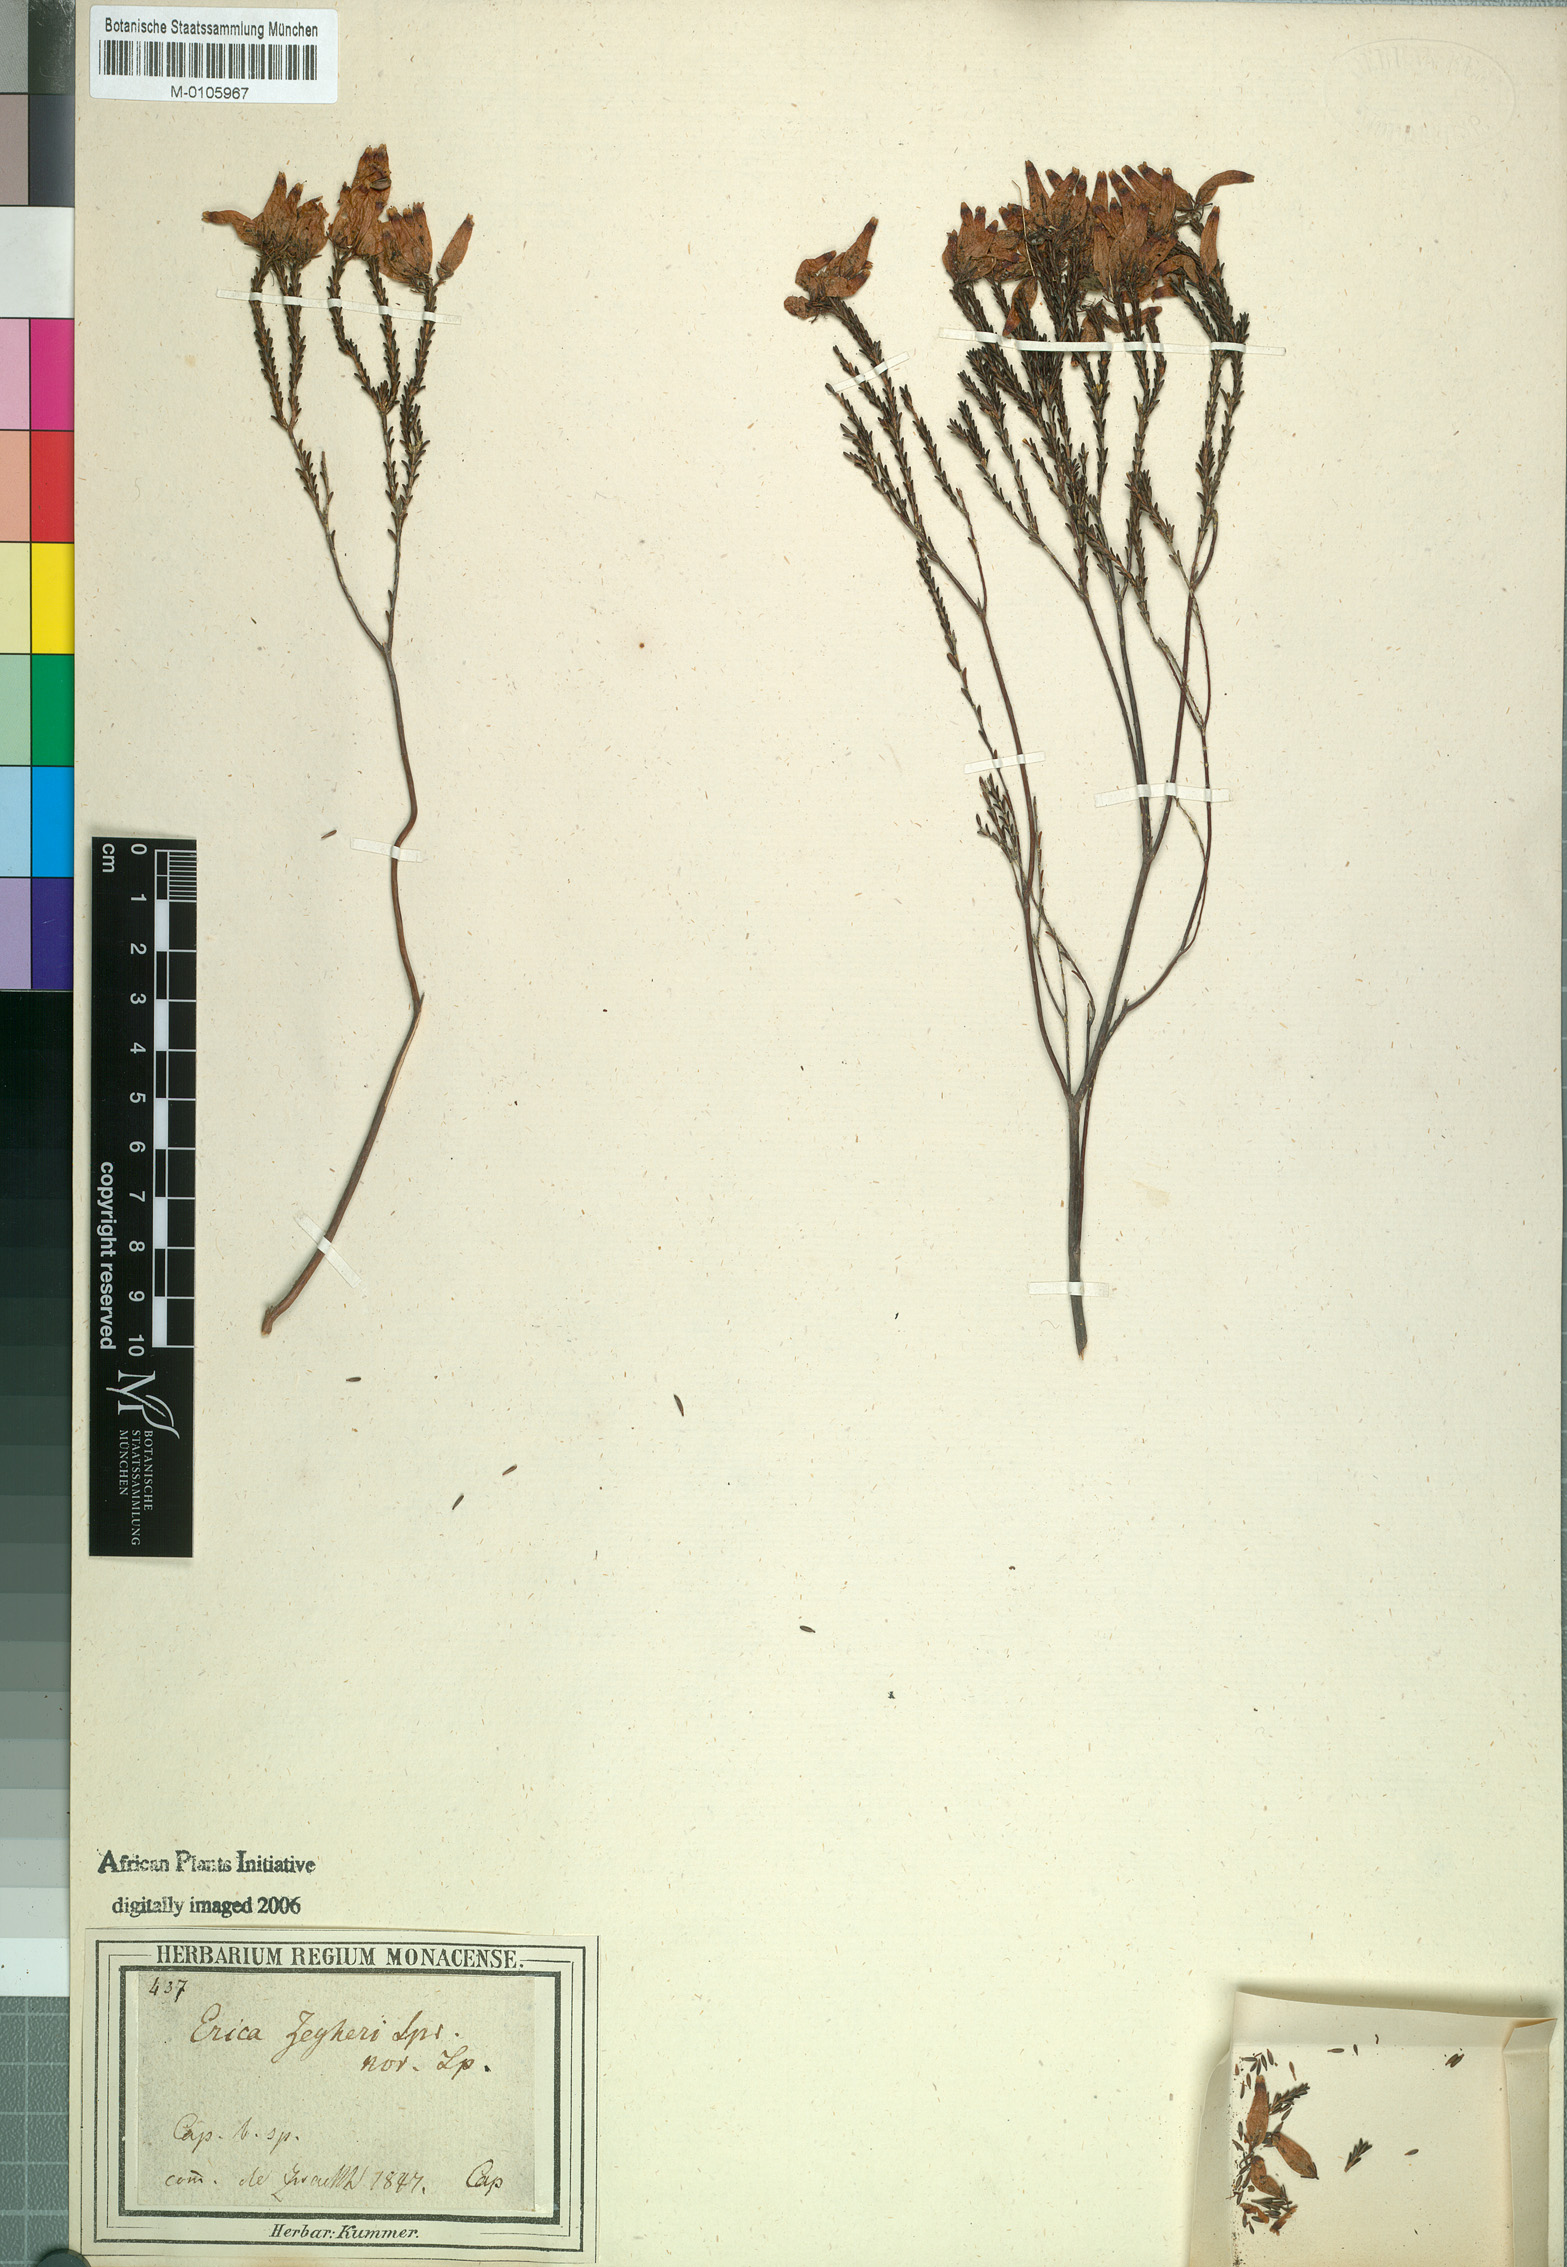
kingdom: Plantae
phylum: Tracheophyta
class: Magnoliopsida
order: Ericales
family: Ericaceae
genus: Erica
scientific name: Erica curvifolia
